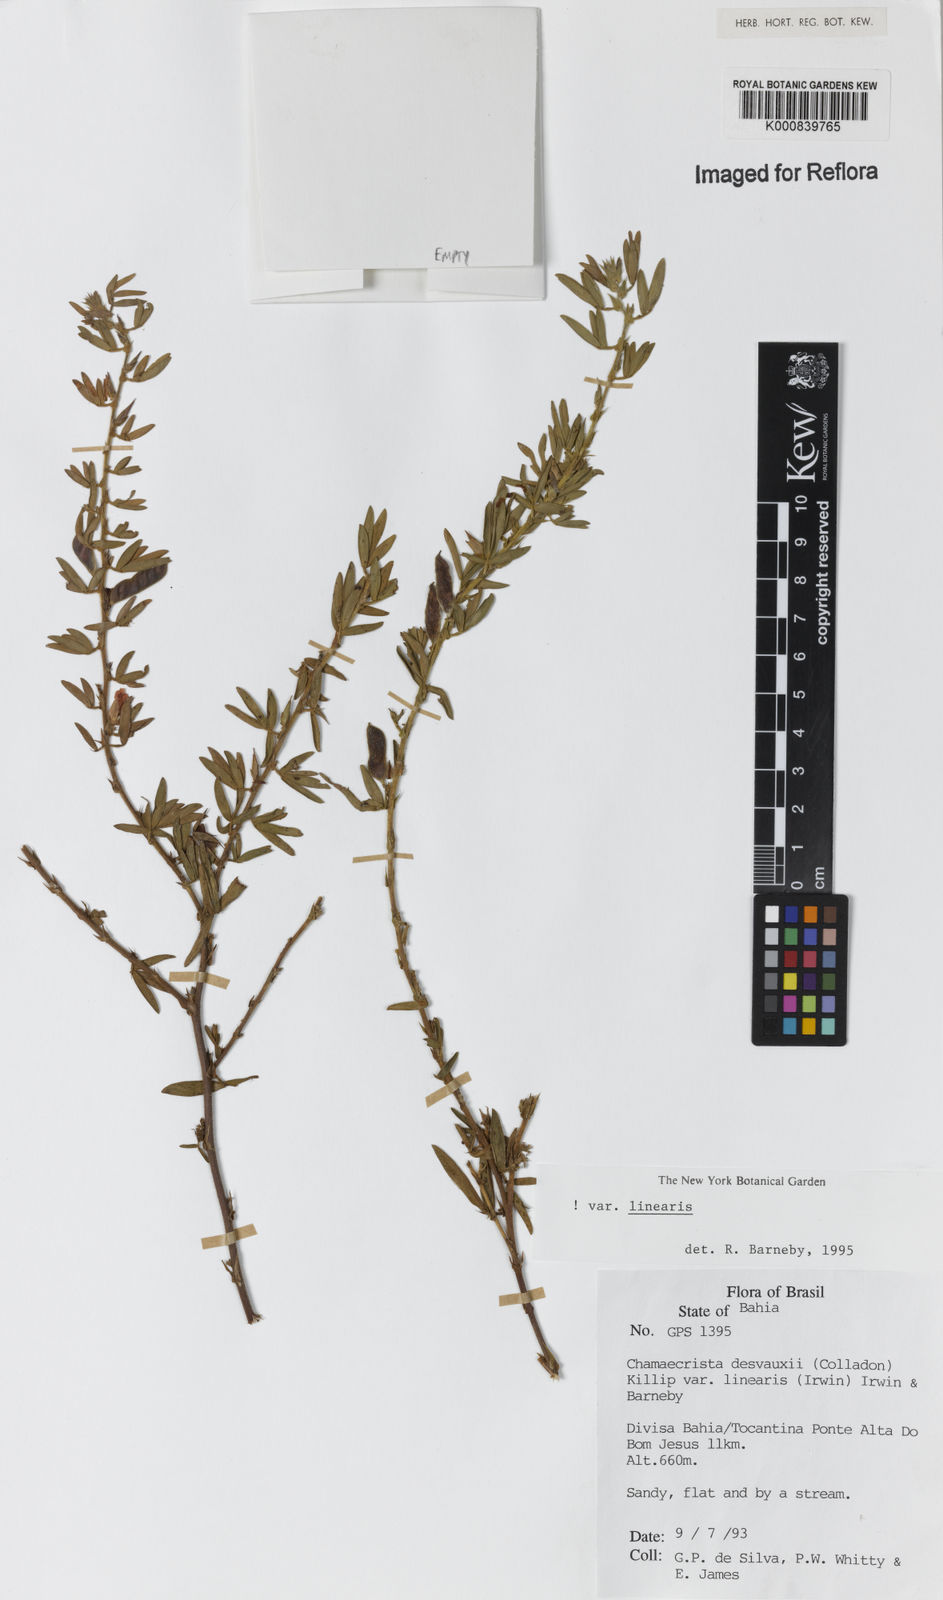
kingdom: Plantae
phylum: Tracheophyta
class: Magnoliopsida
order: Fabales
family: Fabaceae
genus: Chamaecrista
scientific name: Chamaecrista desvauxii
